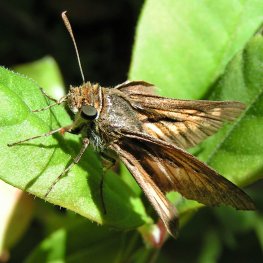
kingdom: Animalia
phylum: Arthropoda
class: Insecta
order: Lepidoptera
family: Hesperiidae
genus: Euphyes
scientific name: Euphyes dion
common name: Dion Skipper
